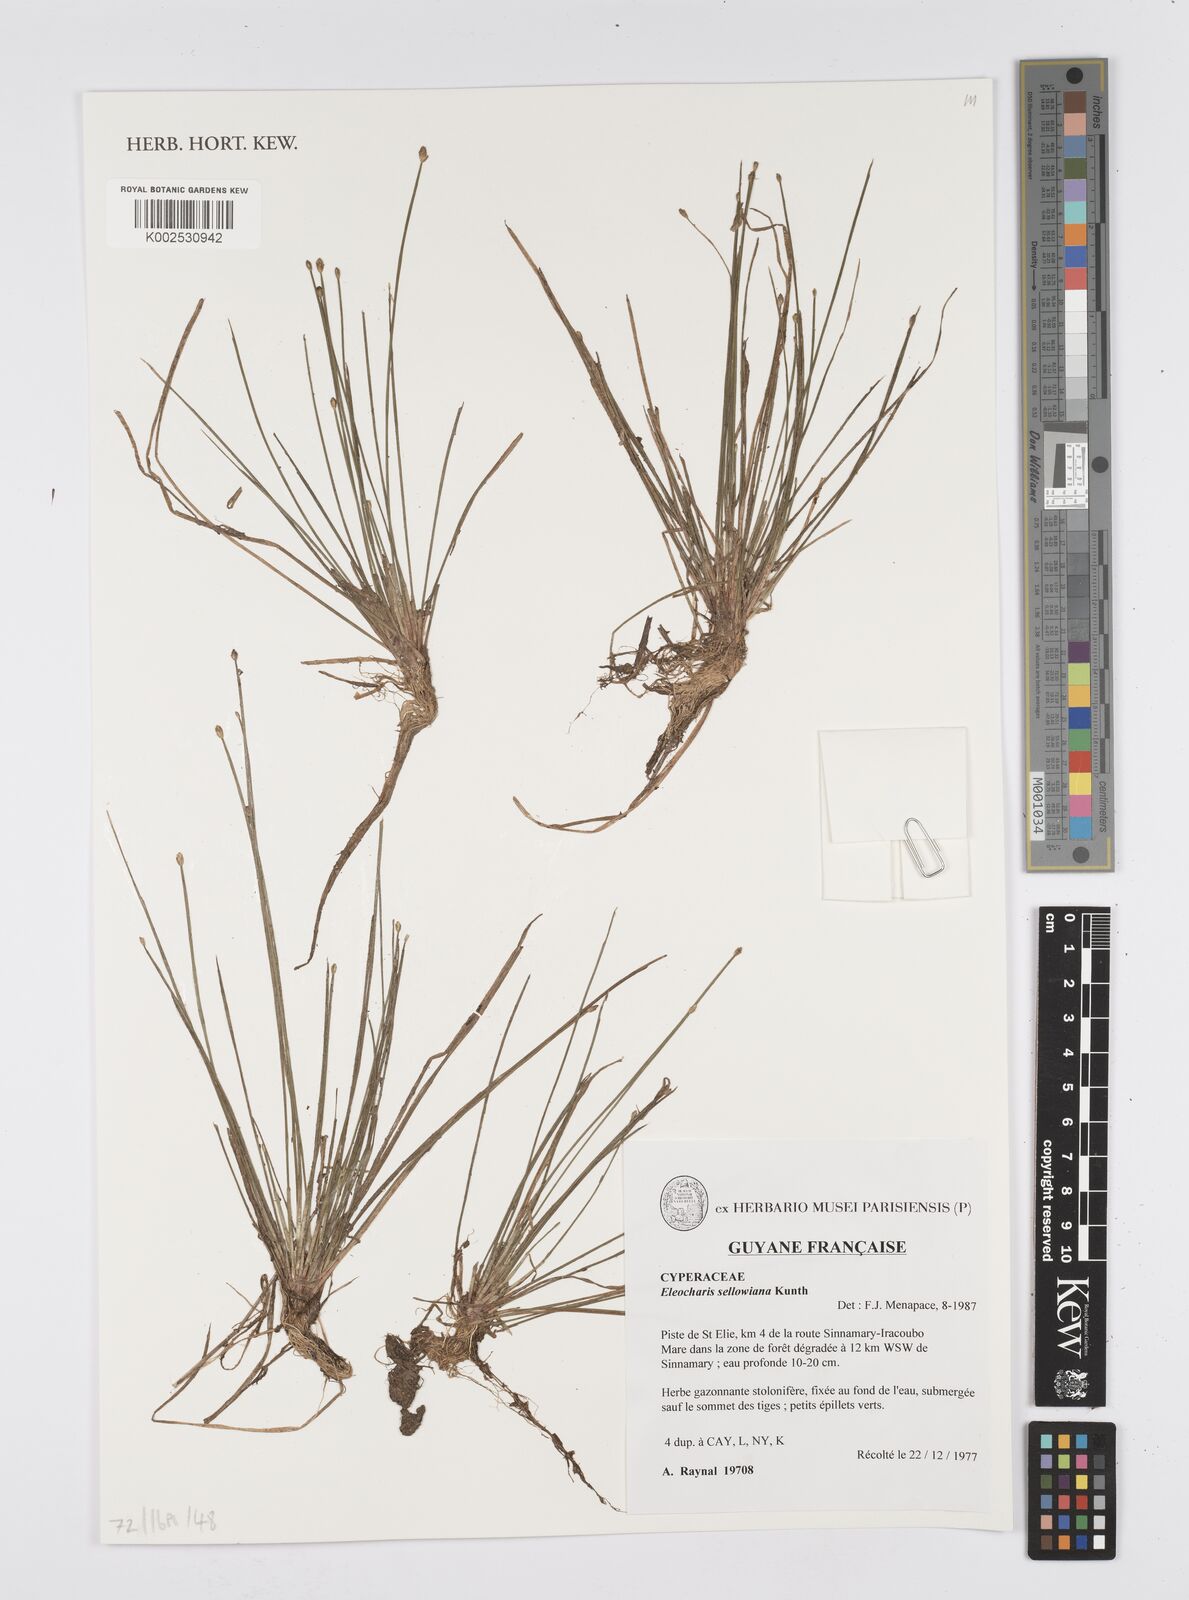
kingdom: Plantae
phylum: Tracheophyta
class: Liliopsida
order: Poales
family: Cyperaceae
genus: Eleocharis
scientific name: Eleocharis sellowiana
